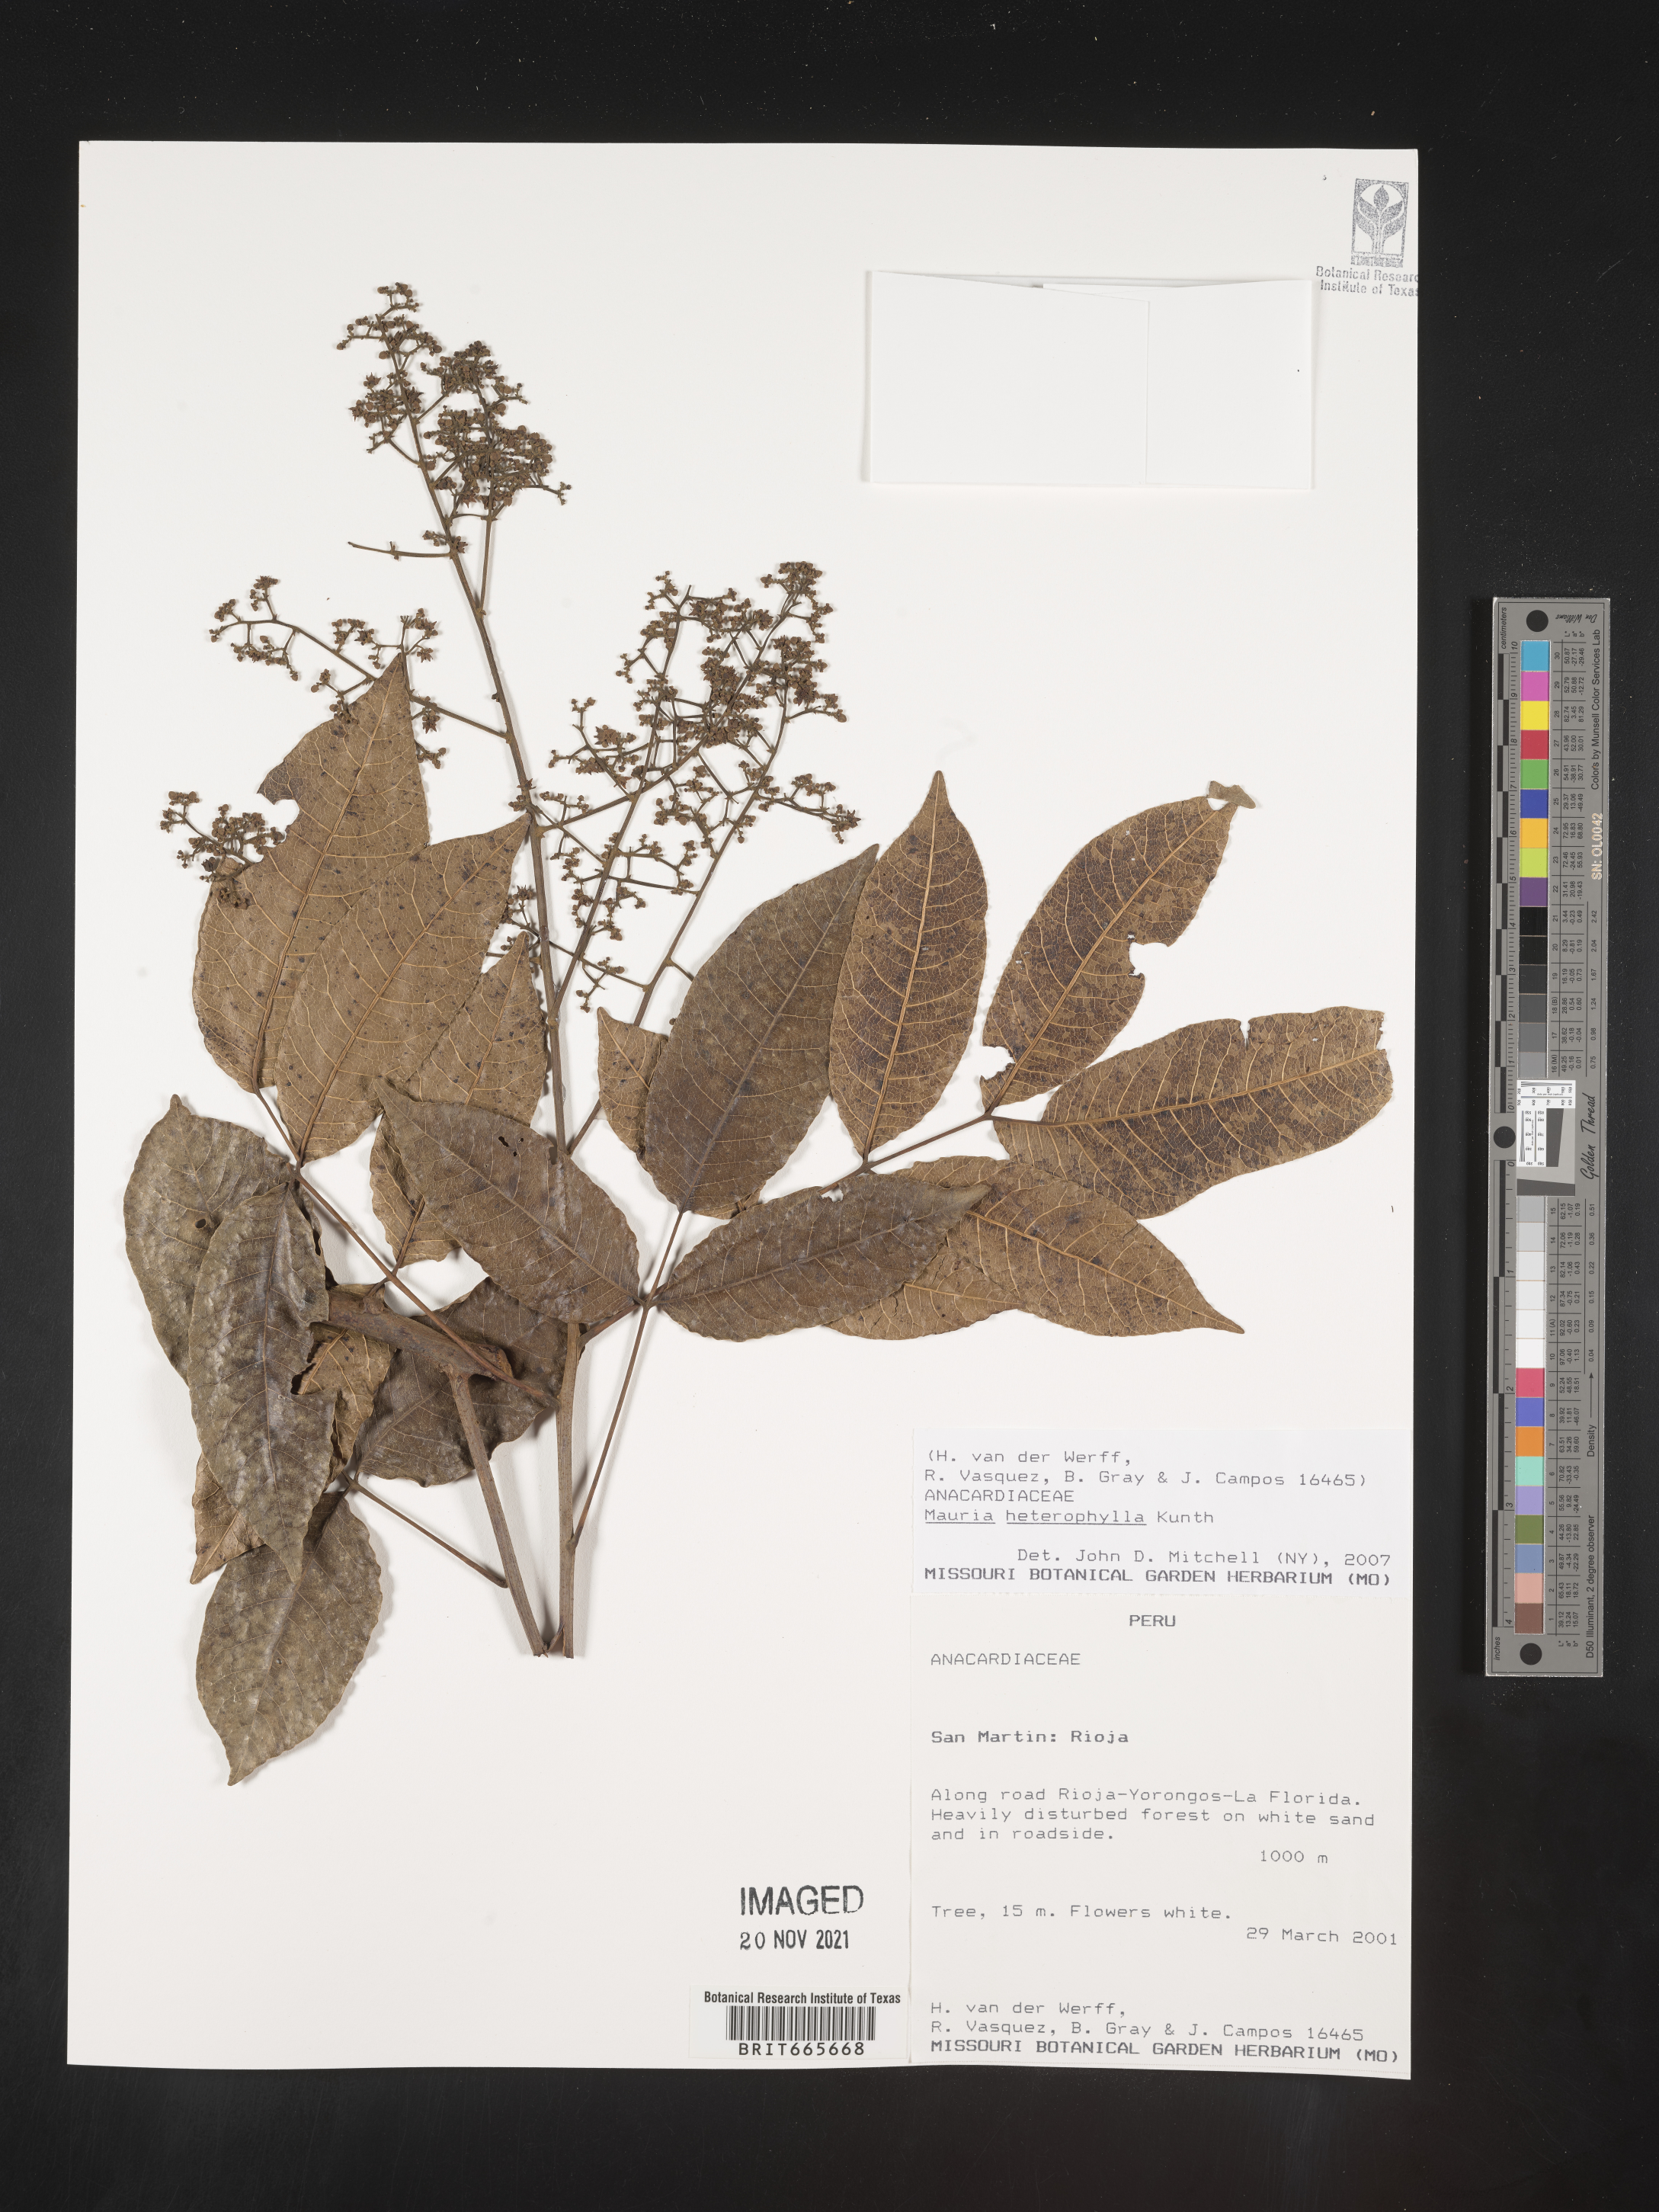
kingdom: Plantae
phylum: Tracheophyta
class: Magnoliopsida
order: Sapindales
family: Anacardiaceae
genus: Mauria
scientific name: Mauria
